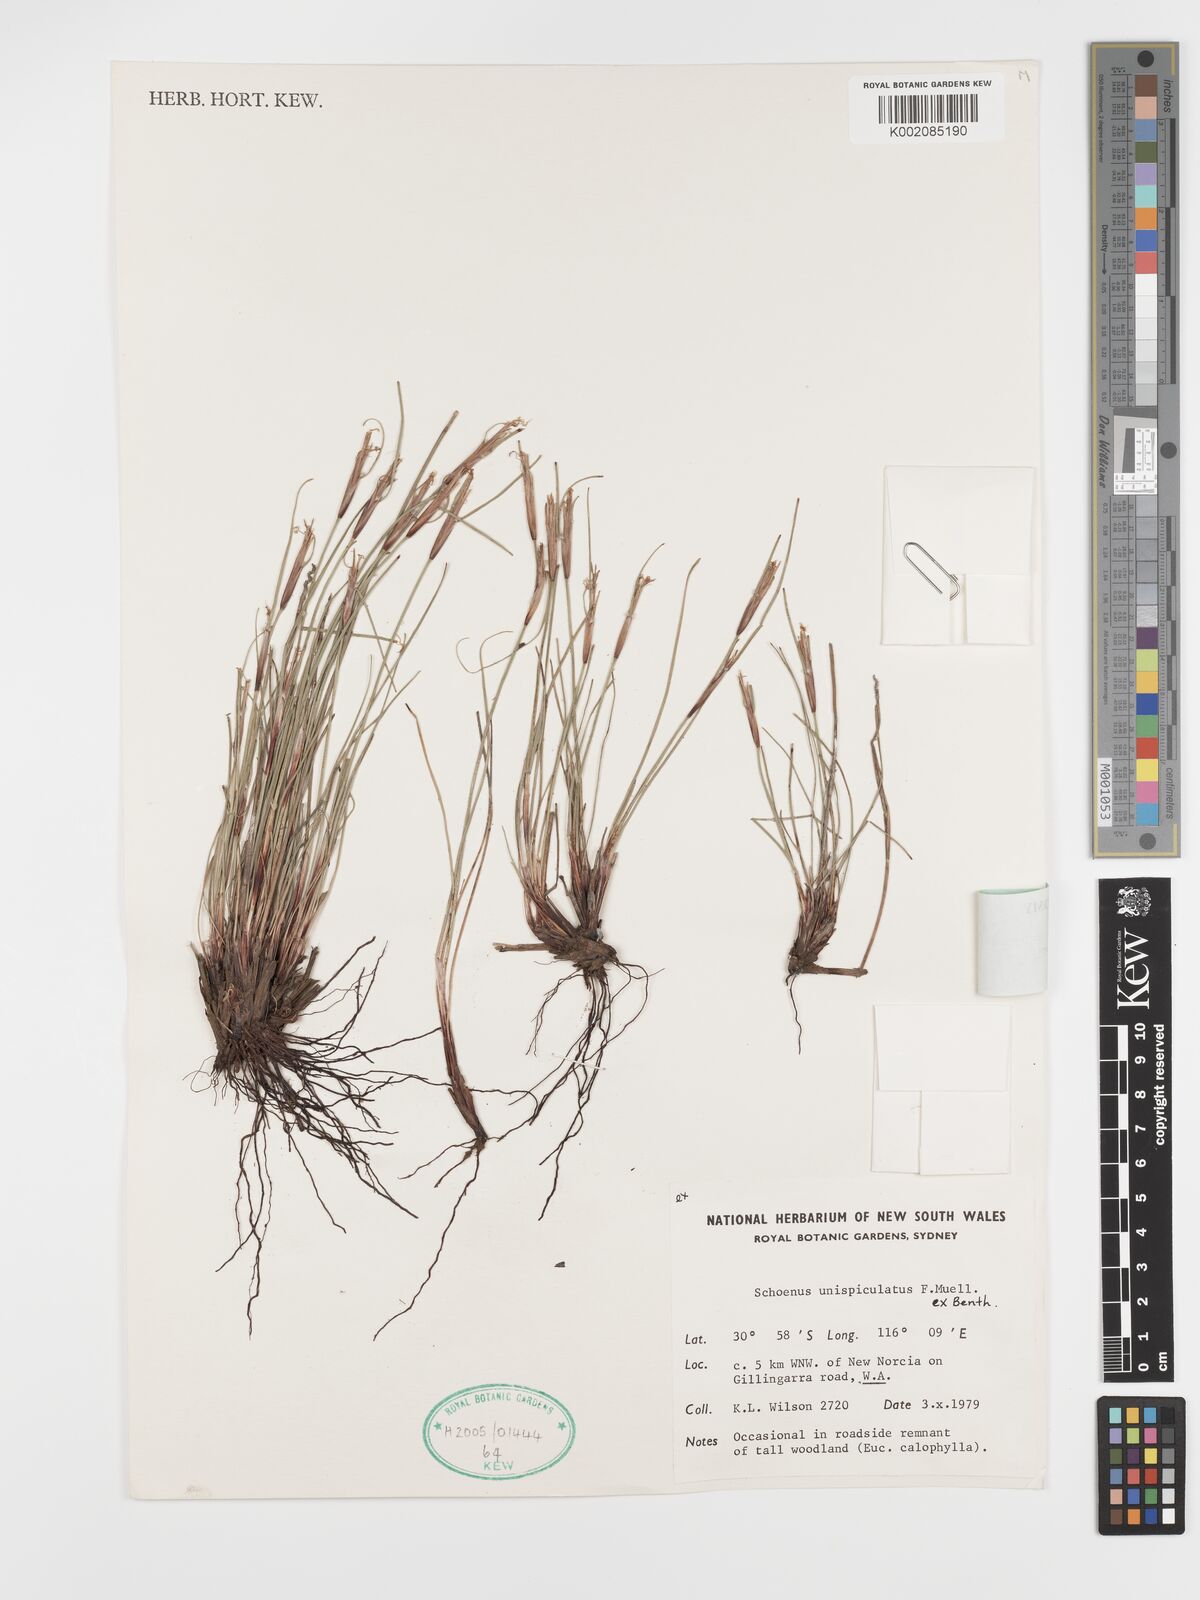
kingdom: Plantae
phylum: Tracheophyta
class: Liliopsida
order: Poales
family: Cyperaceae
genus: Schoenus
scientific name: Schoenus unispiculatus
